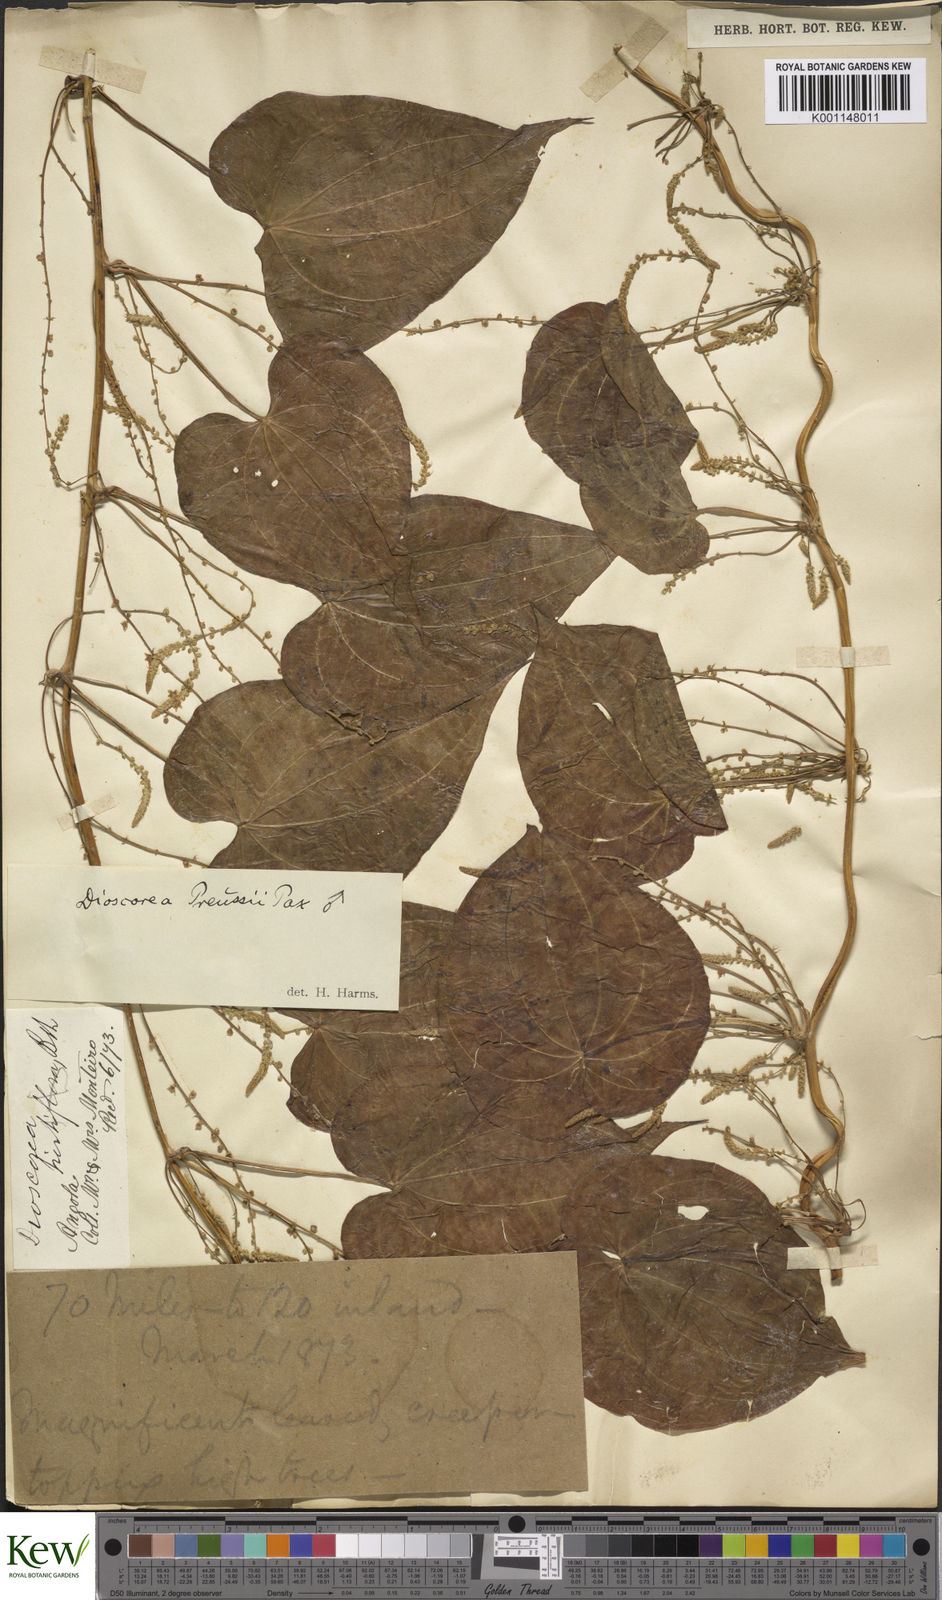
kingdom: Plantae
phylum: Tracheophyta
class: Liliopsida
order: Dioscoreales
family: Dioscoreaceae
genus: Dioscorea
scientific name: Dioscorea preussii
